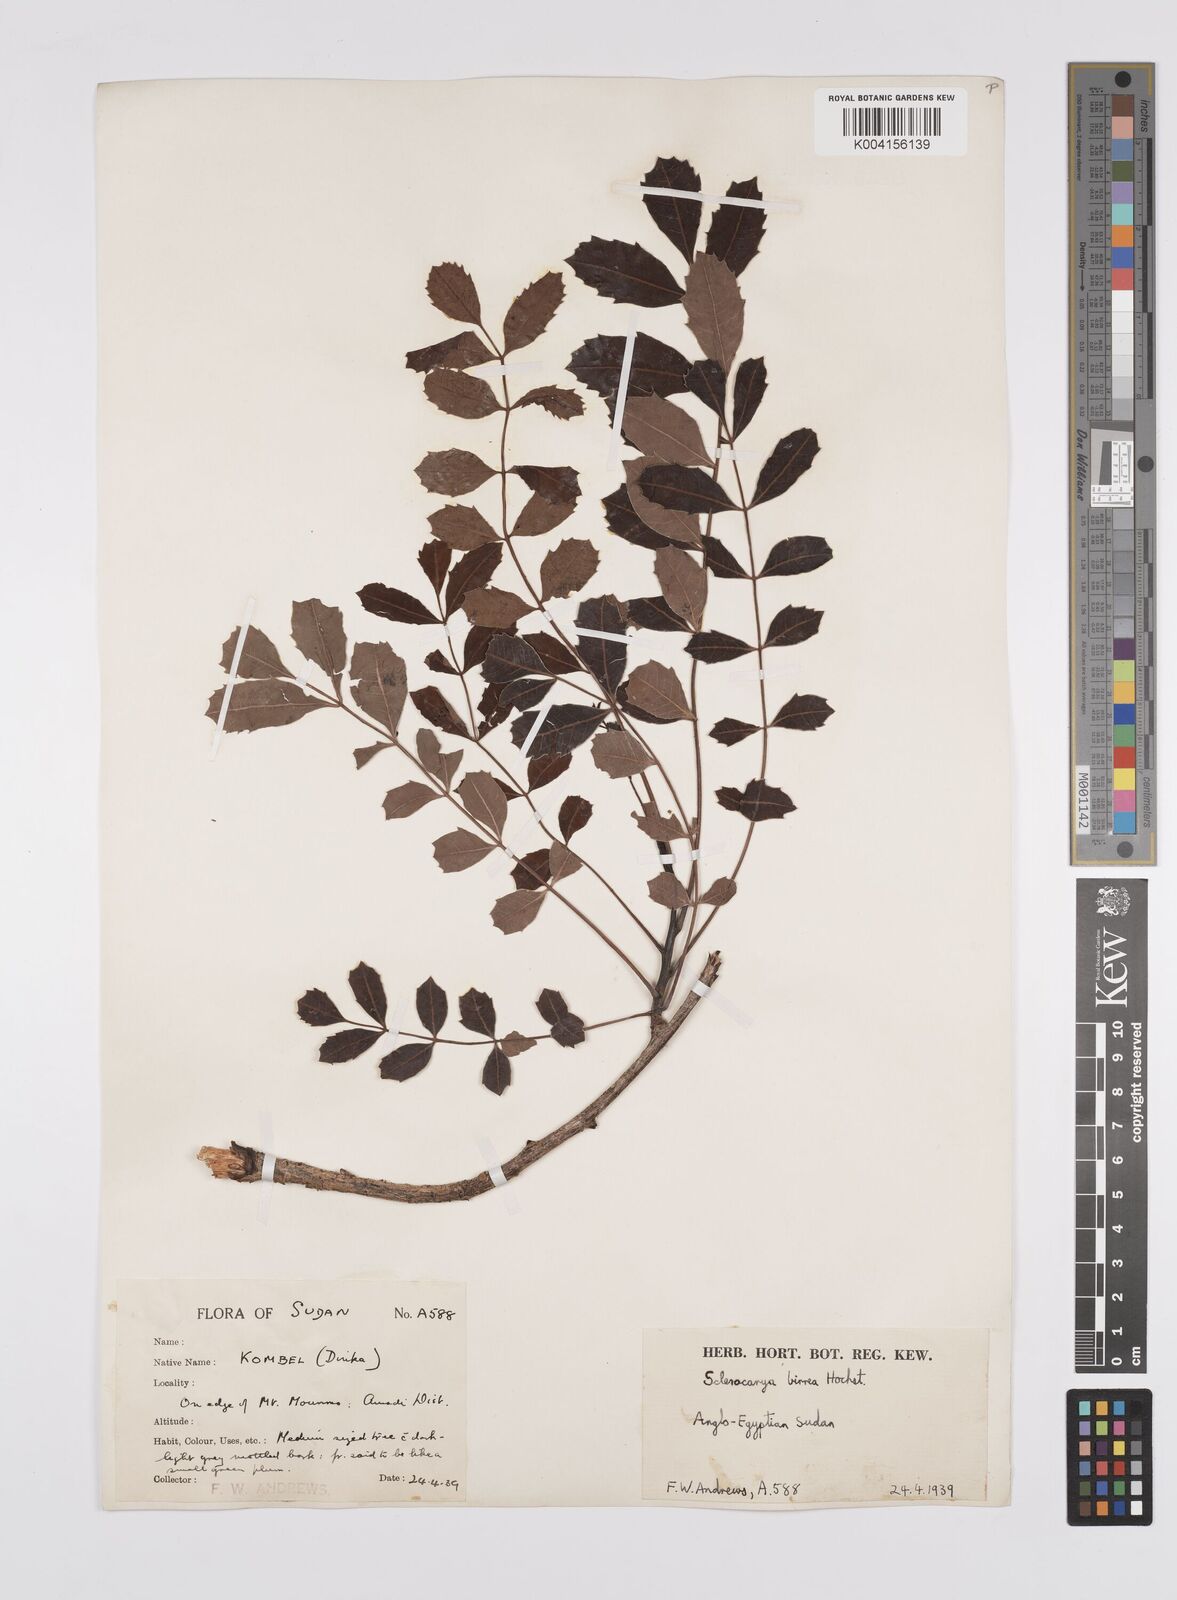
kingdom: Plantae
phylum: Tracheophyta
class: Magnoliopsida
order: Sapindales
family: Anacardiaceae
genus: Sclerocarya
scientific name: Sclerocarya birrea
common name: Marula
